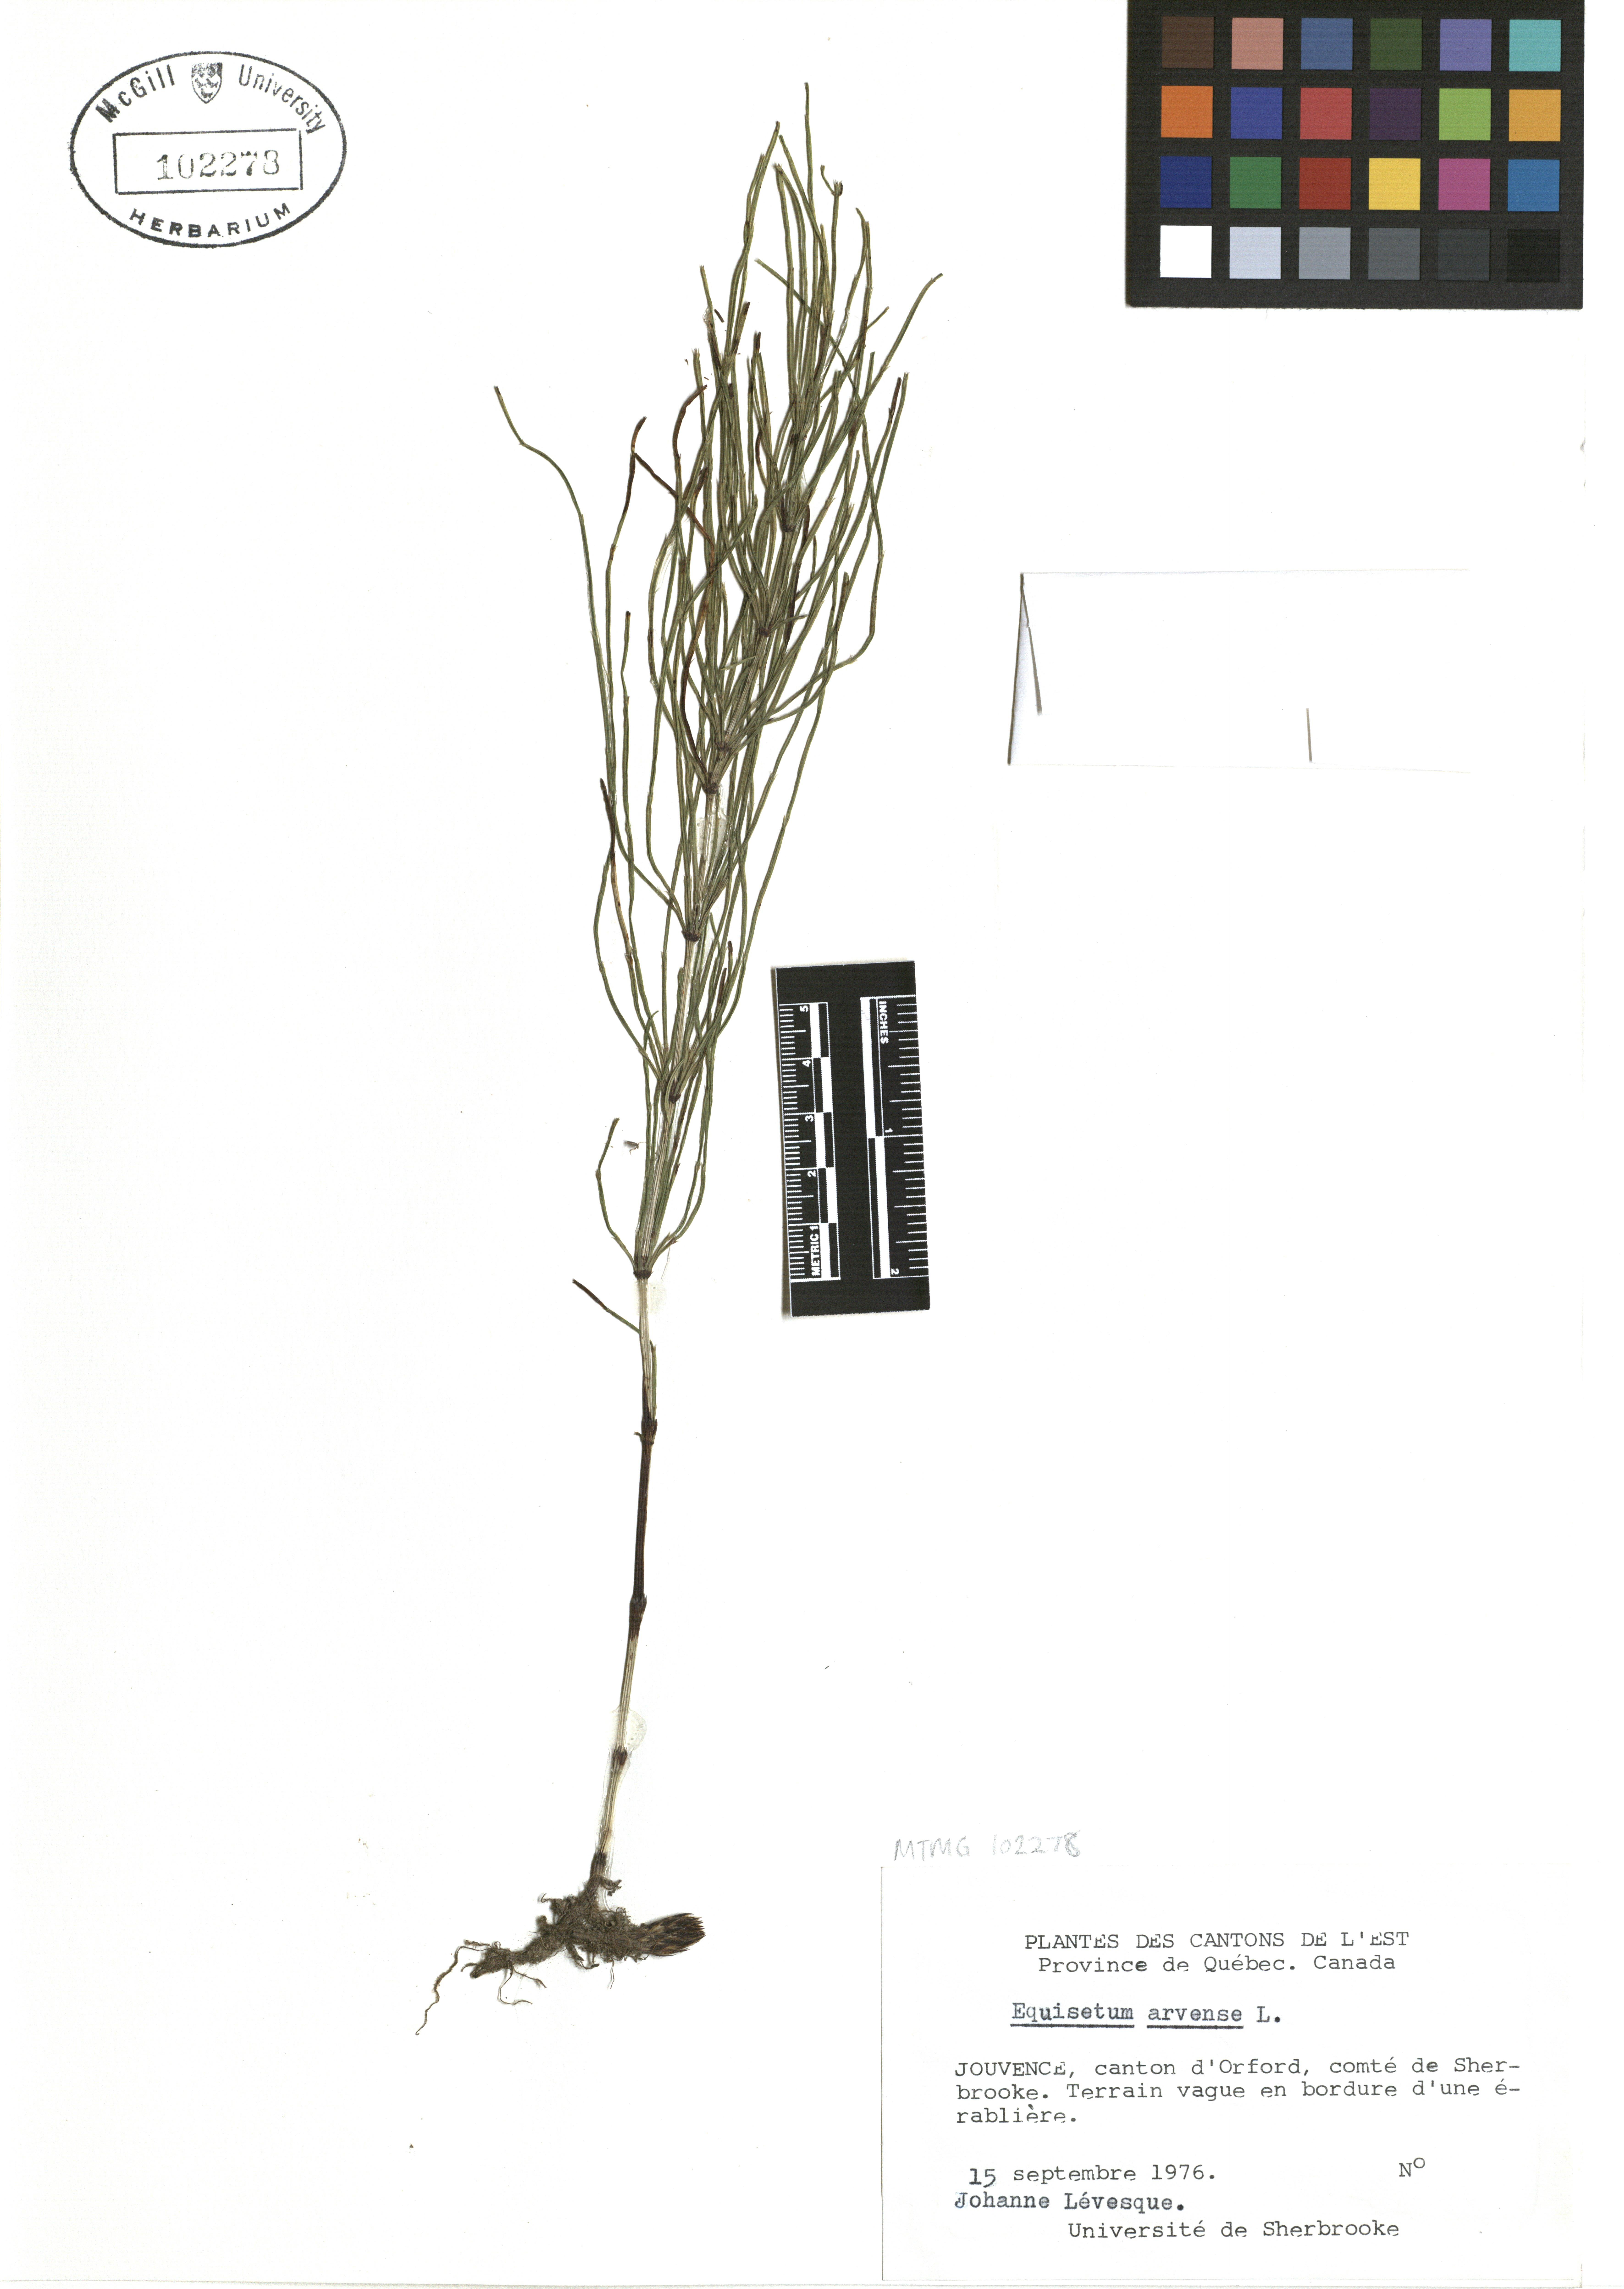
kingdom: Plantae
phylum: Tracheophyta
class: Polypodiopsida
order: Equisetales
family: Equisetaceae
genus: Equisetum
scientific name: Equisetum arvense
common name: Field horsetail
